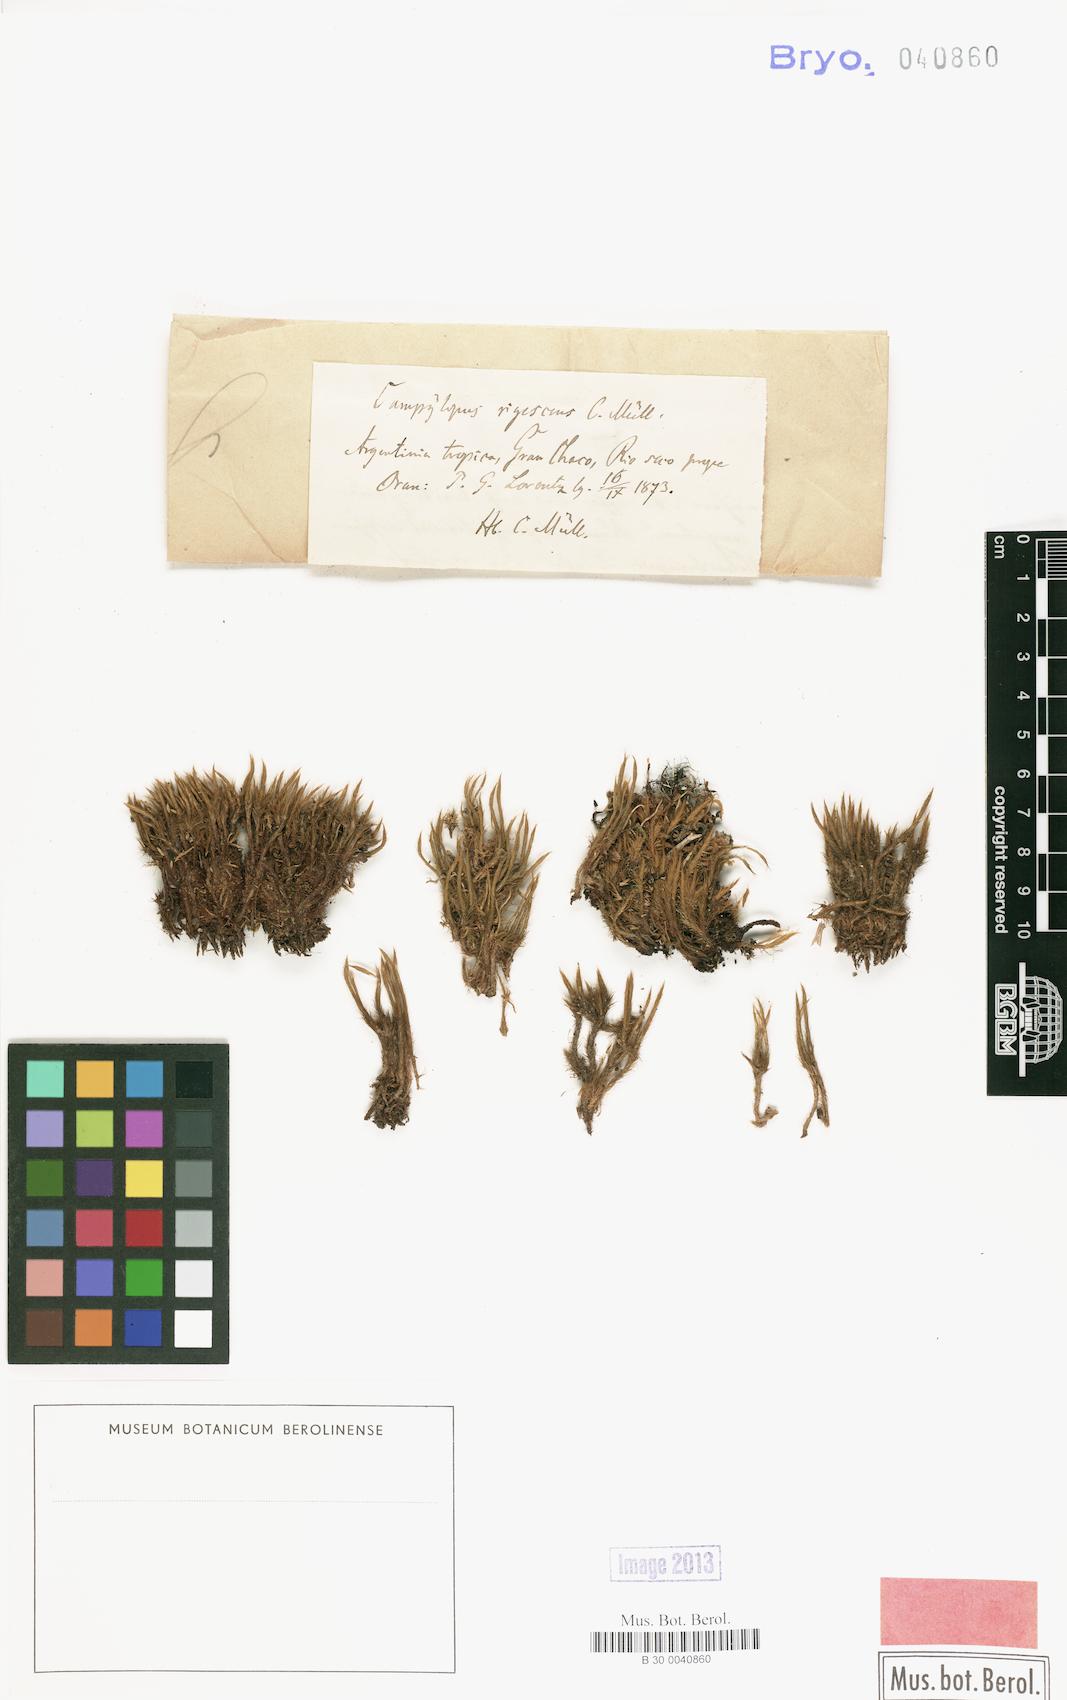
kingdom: Plantae
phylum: Bryophyta
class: Bryopsida
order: Dicranales
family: Dicranaceae
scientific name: Dicranaceae
